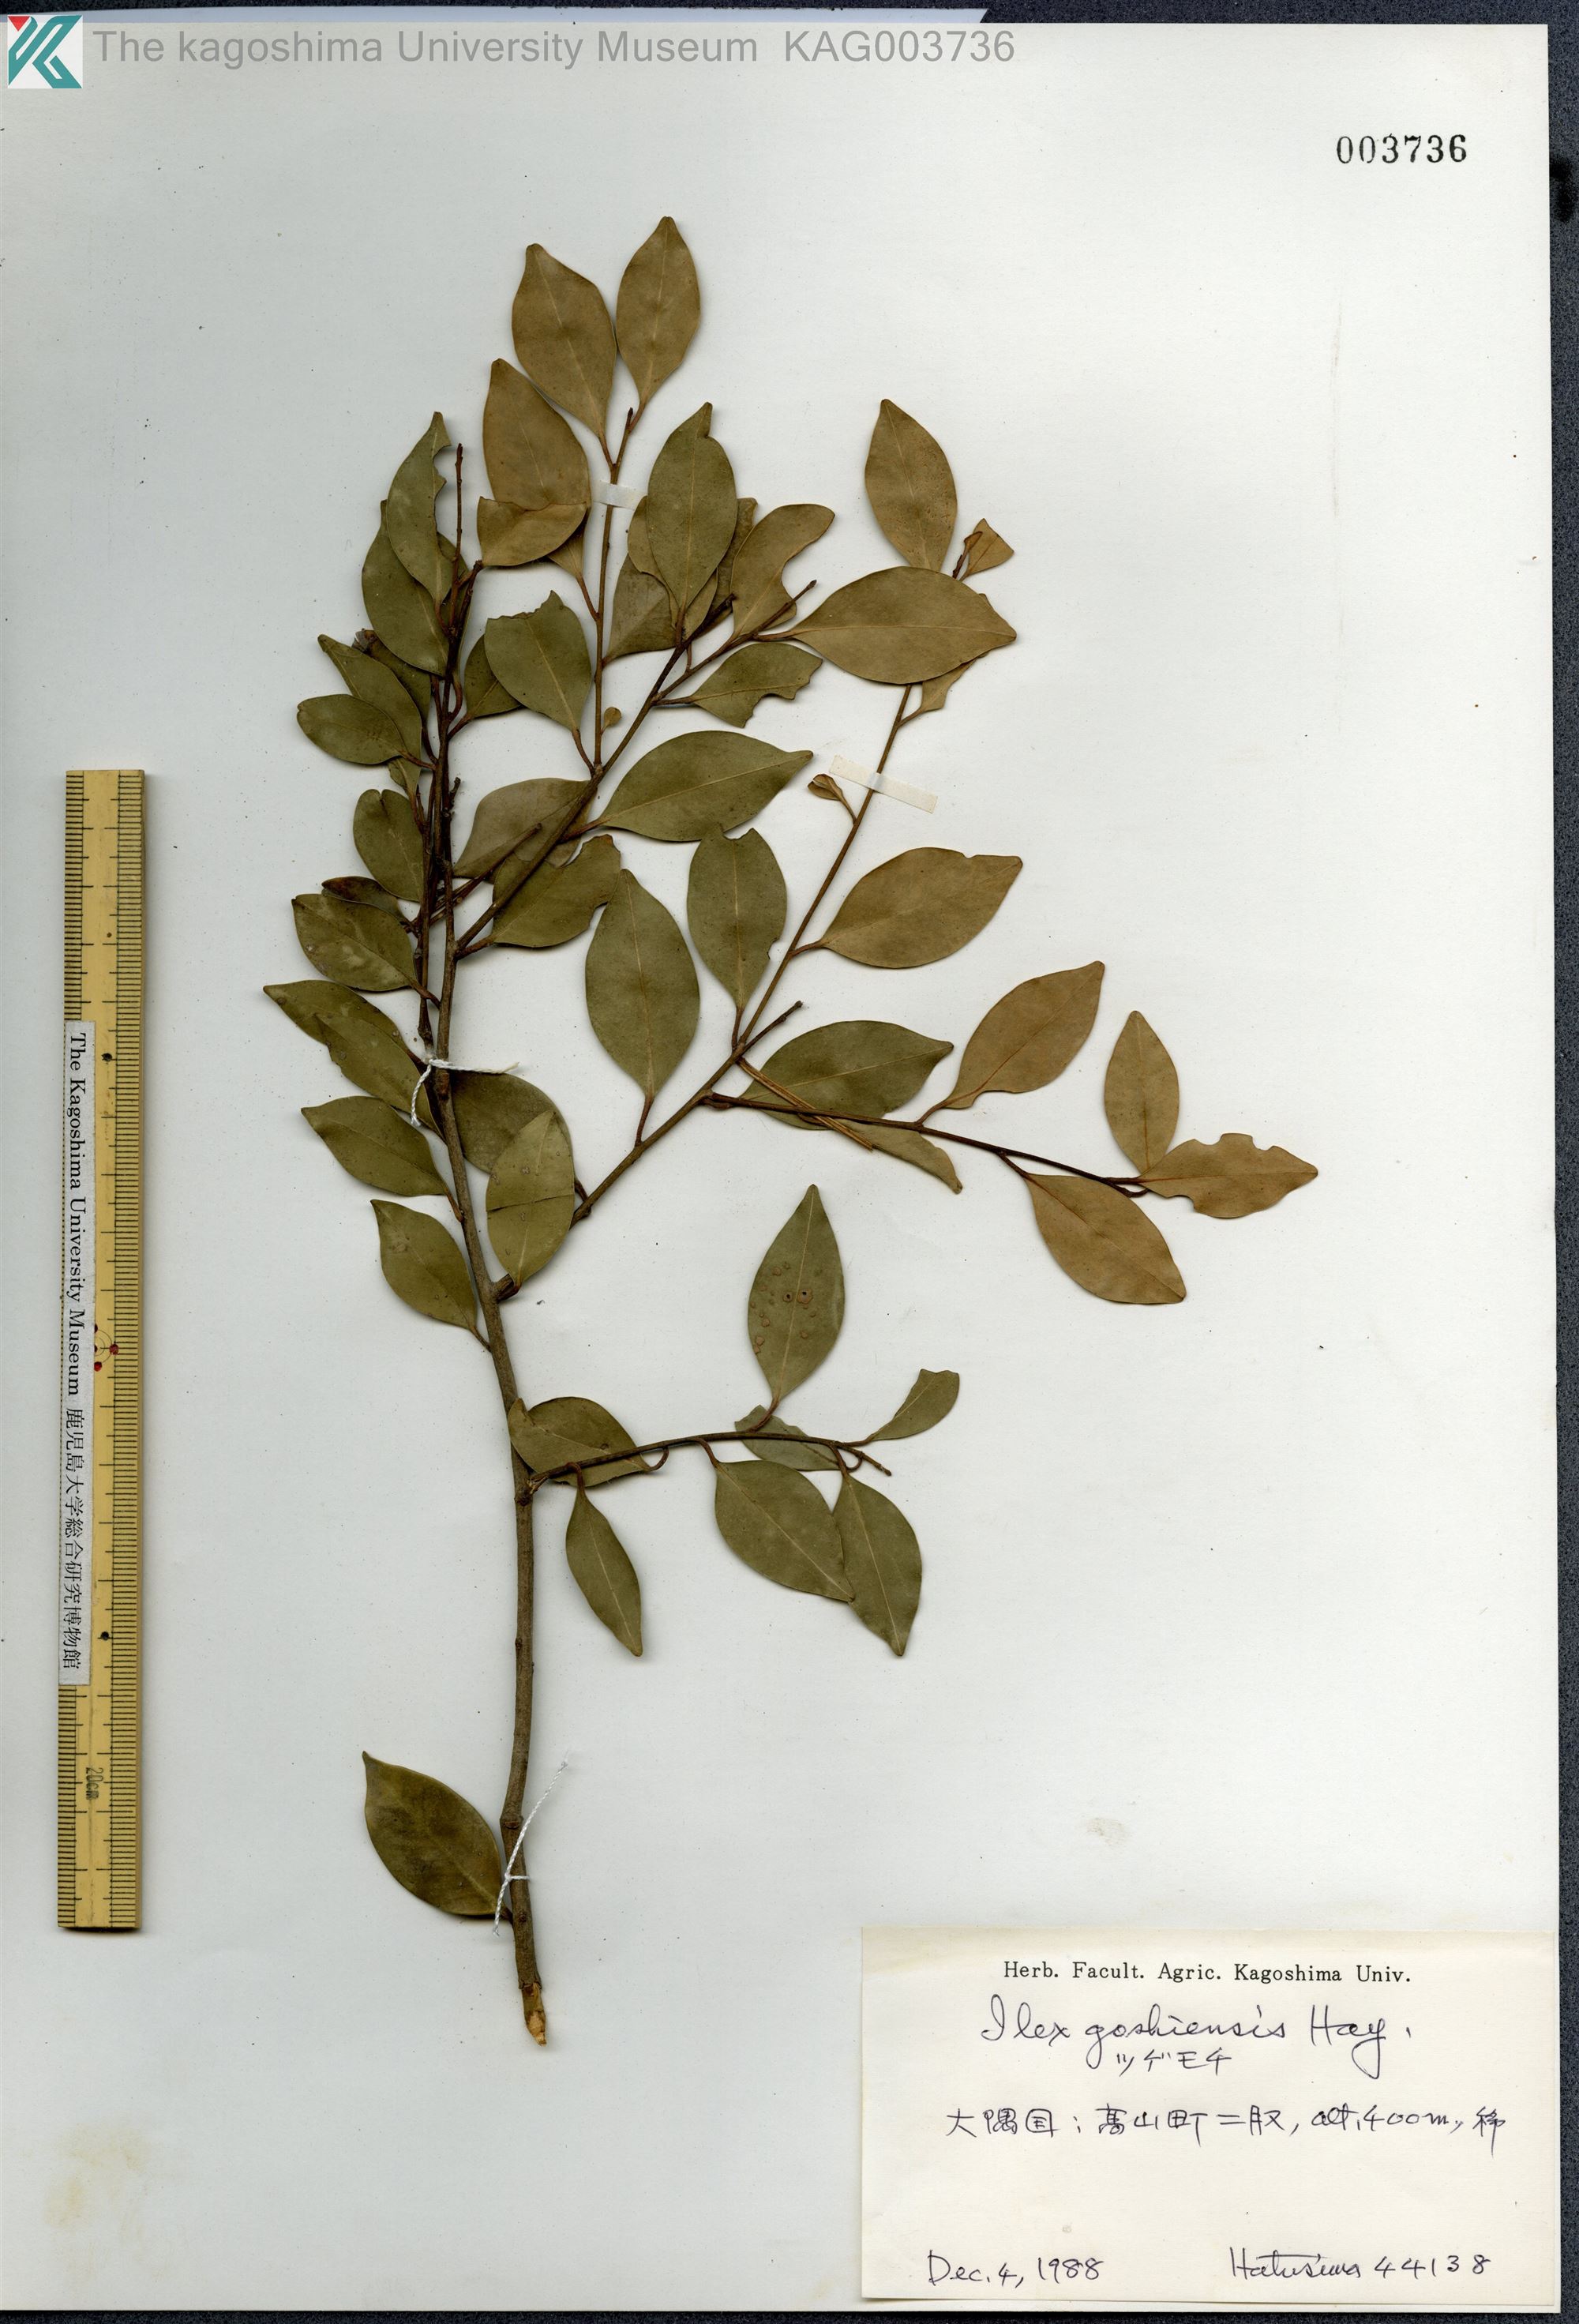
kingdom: Plantae
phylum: Tracheophyta
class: Magnoliopsida
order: Aquifoliales
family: Aquifoliaceae
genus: Ilex
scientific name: Ilex goshiensis
